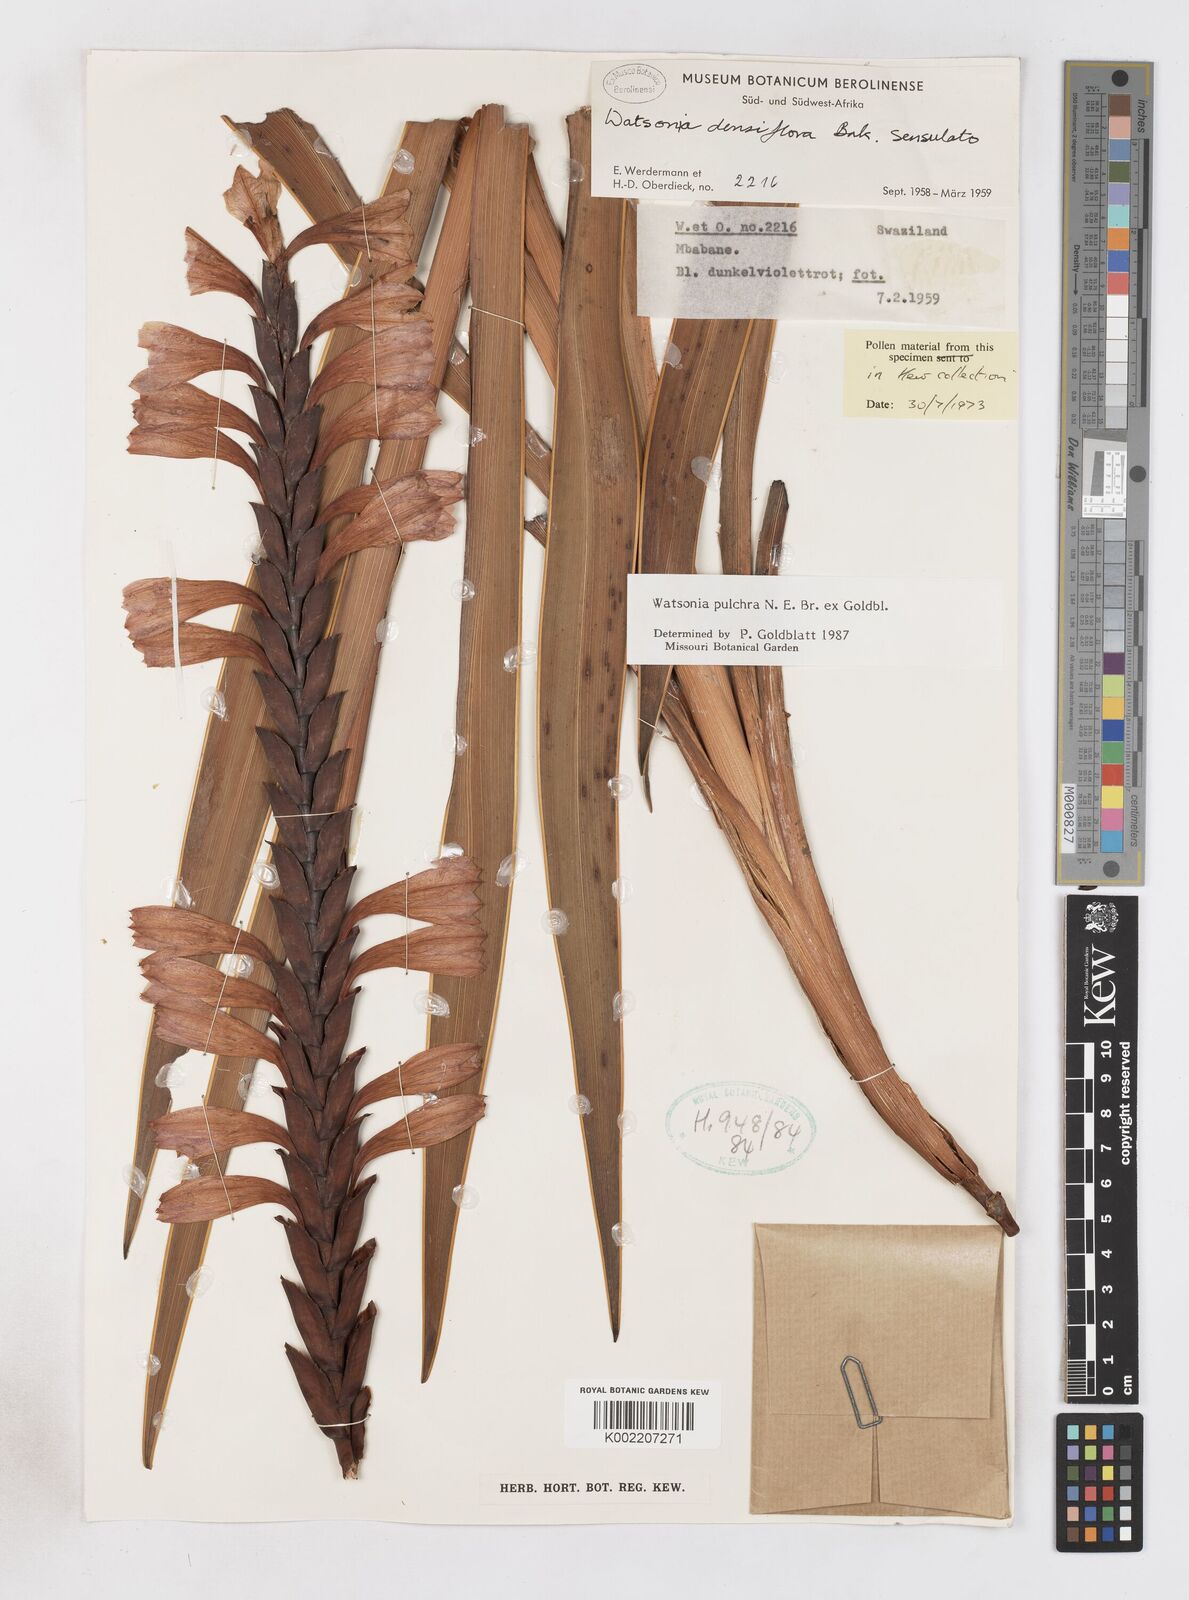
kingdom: Plantae
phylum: Tracheophyta
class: Liliopsida
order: Asparagales
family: Iridaceae
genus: Watsonia
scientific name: Watsonia pulchra
